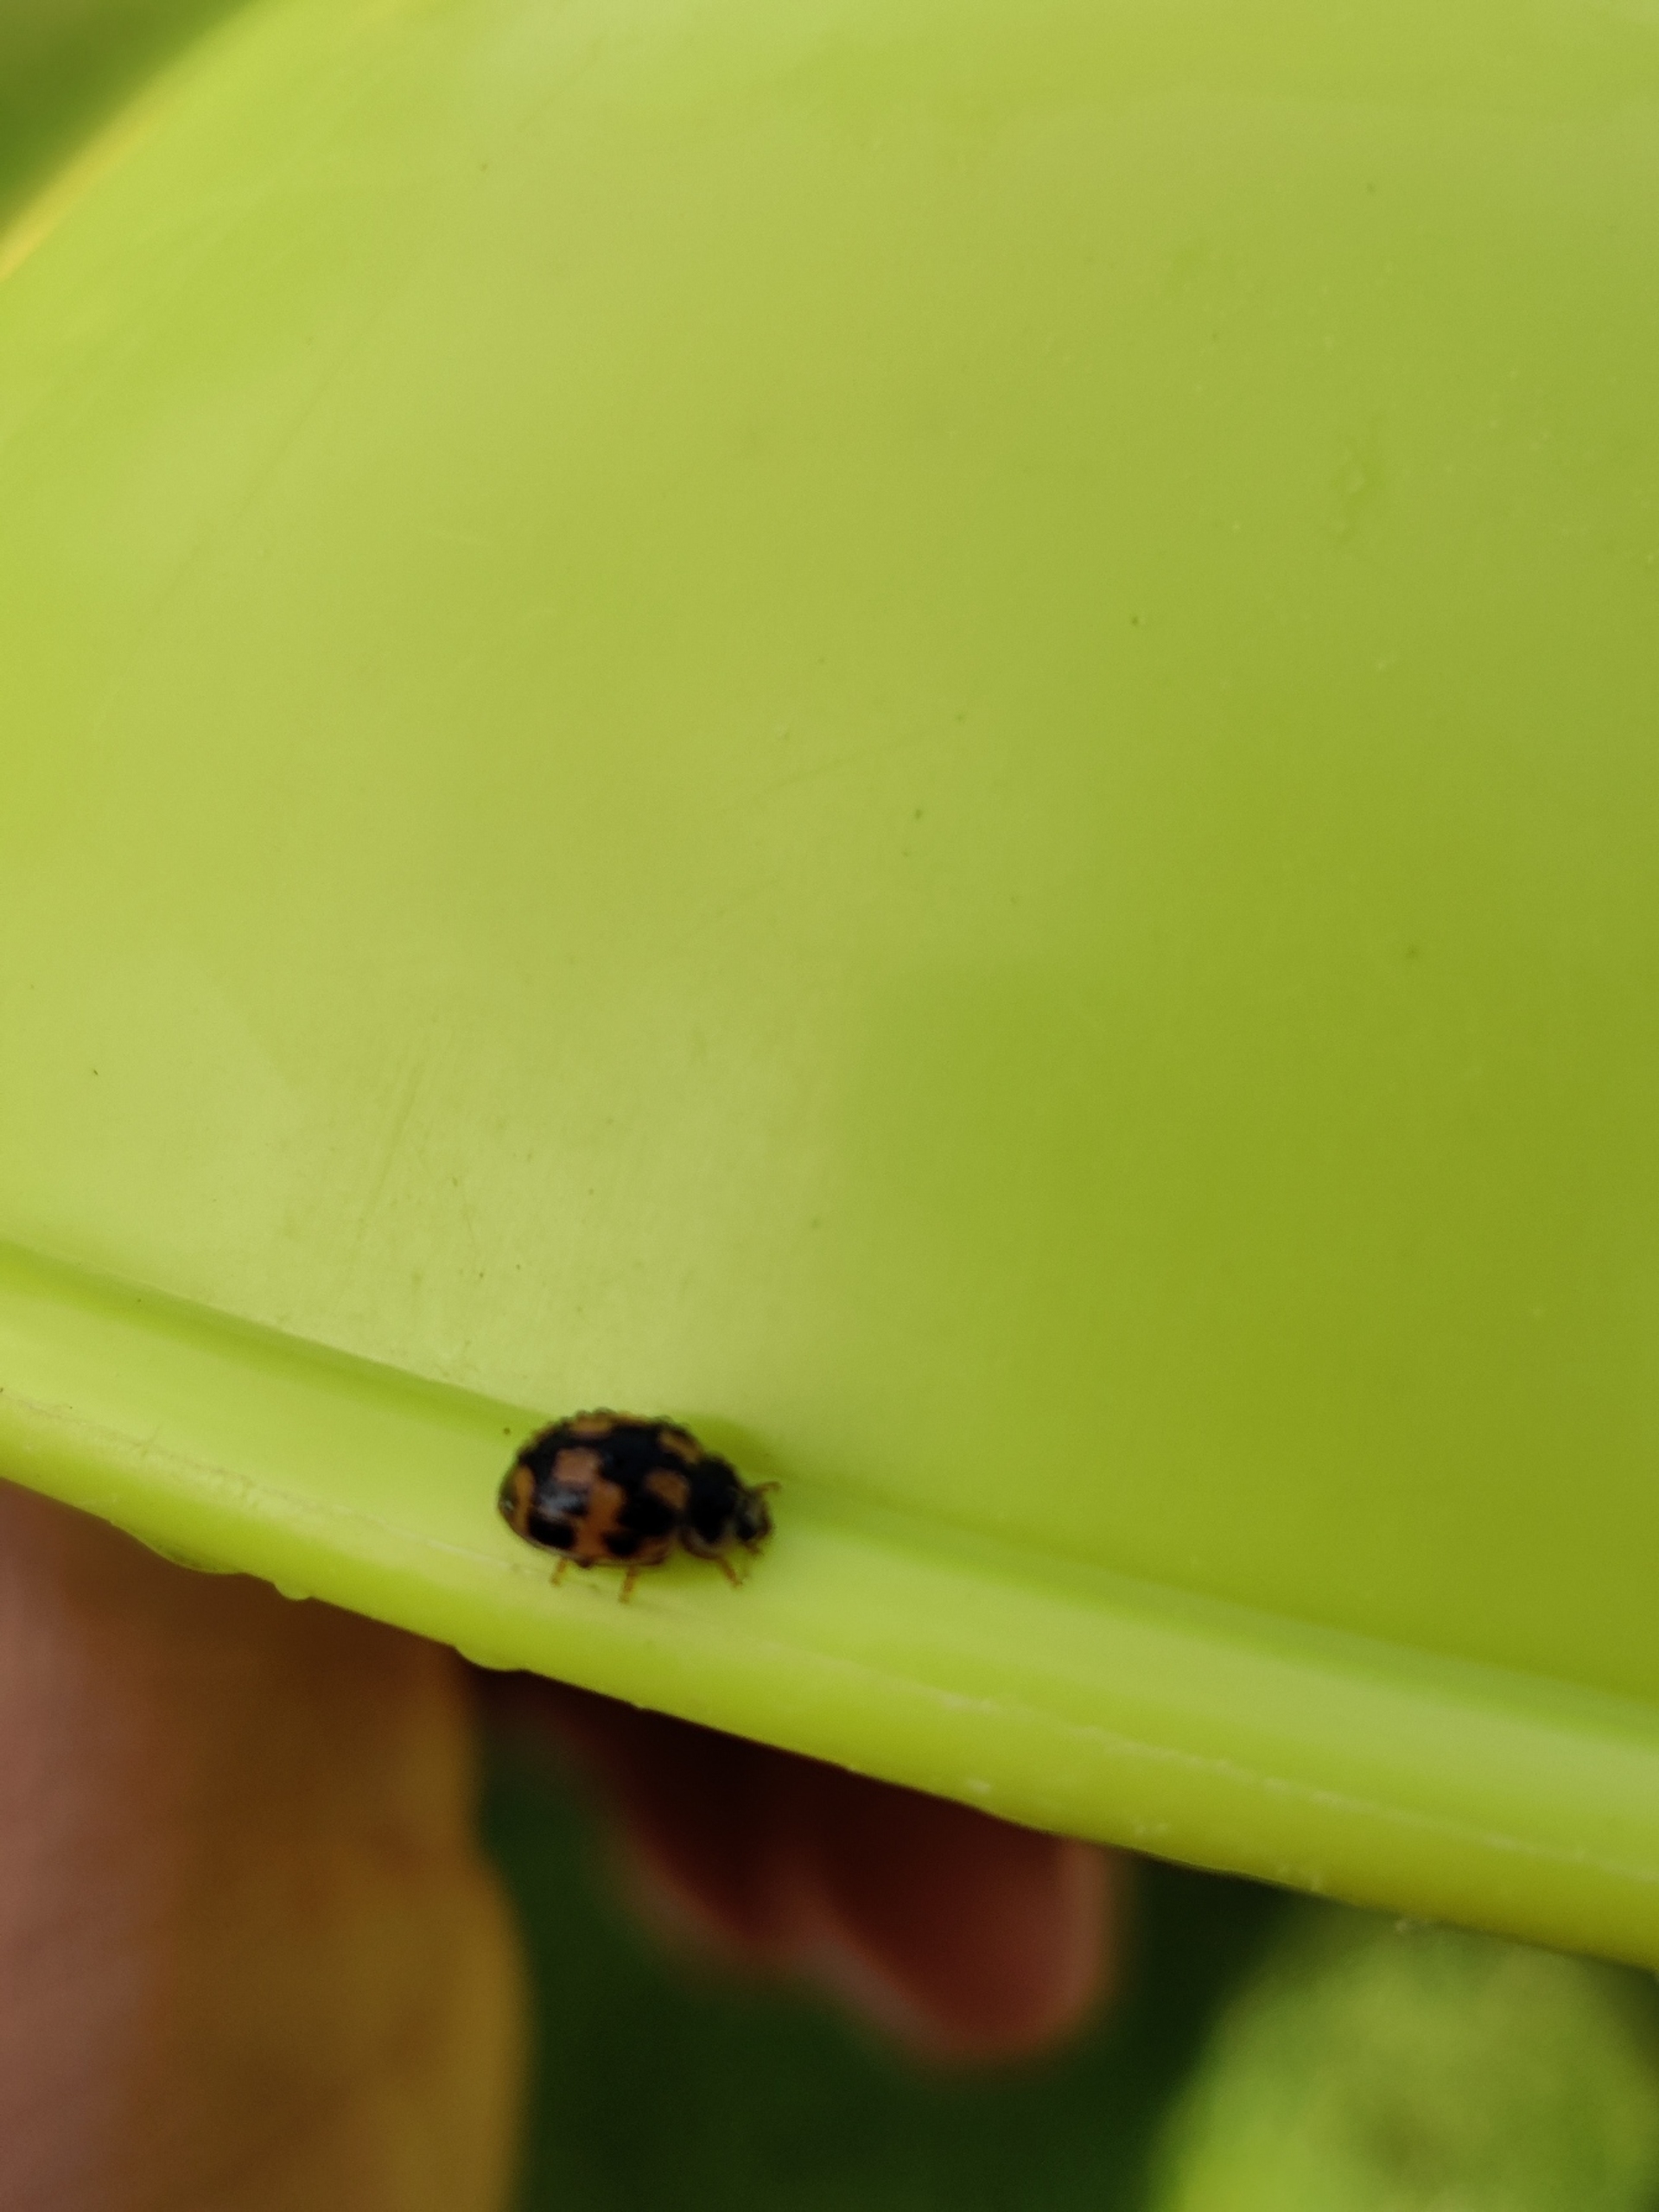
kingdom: Animalia
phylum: Arthropoda
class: Insecta
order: Coleoptera
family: Coccinellidae
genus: Propylaea
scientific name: Propylaea quatuordecimpunctata
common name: Skakbræt
